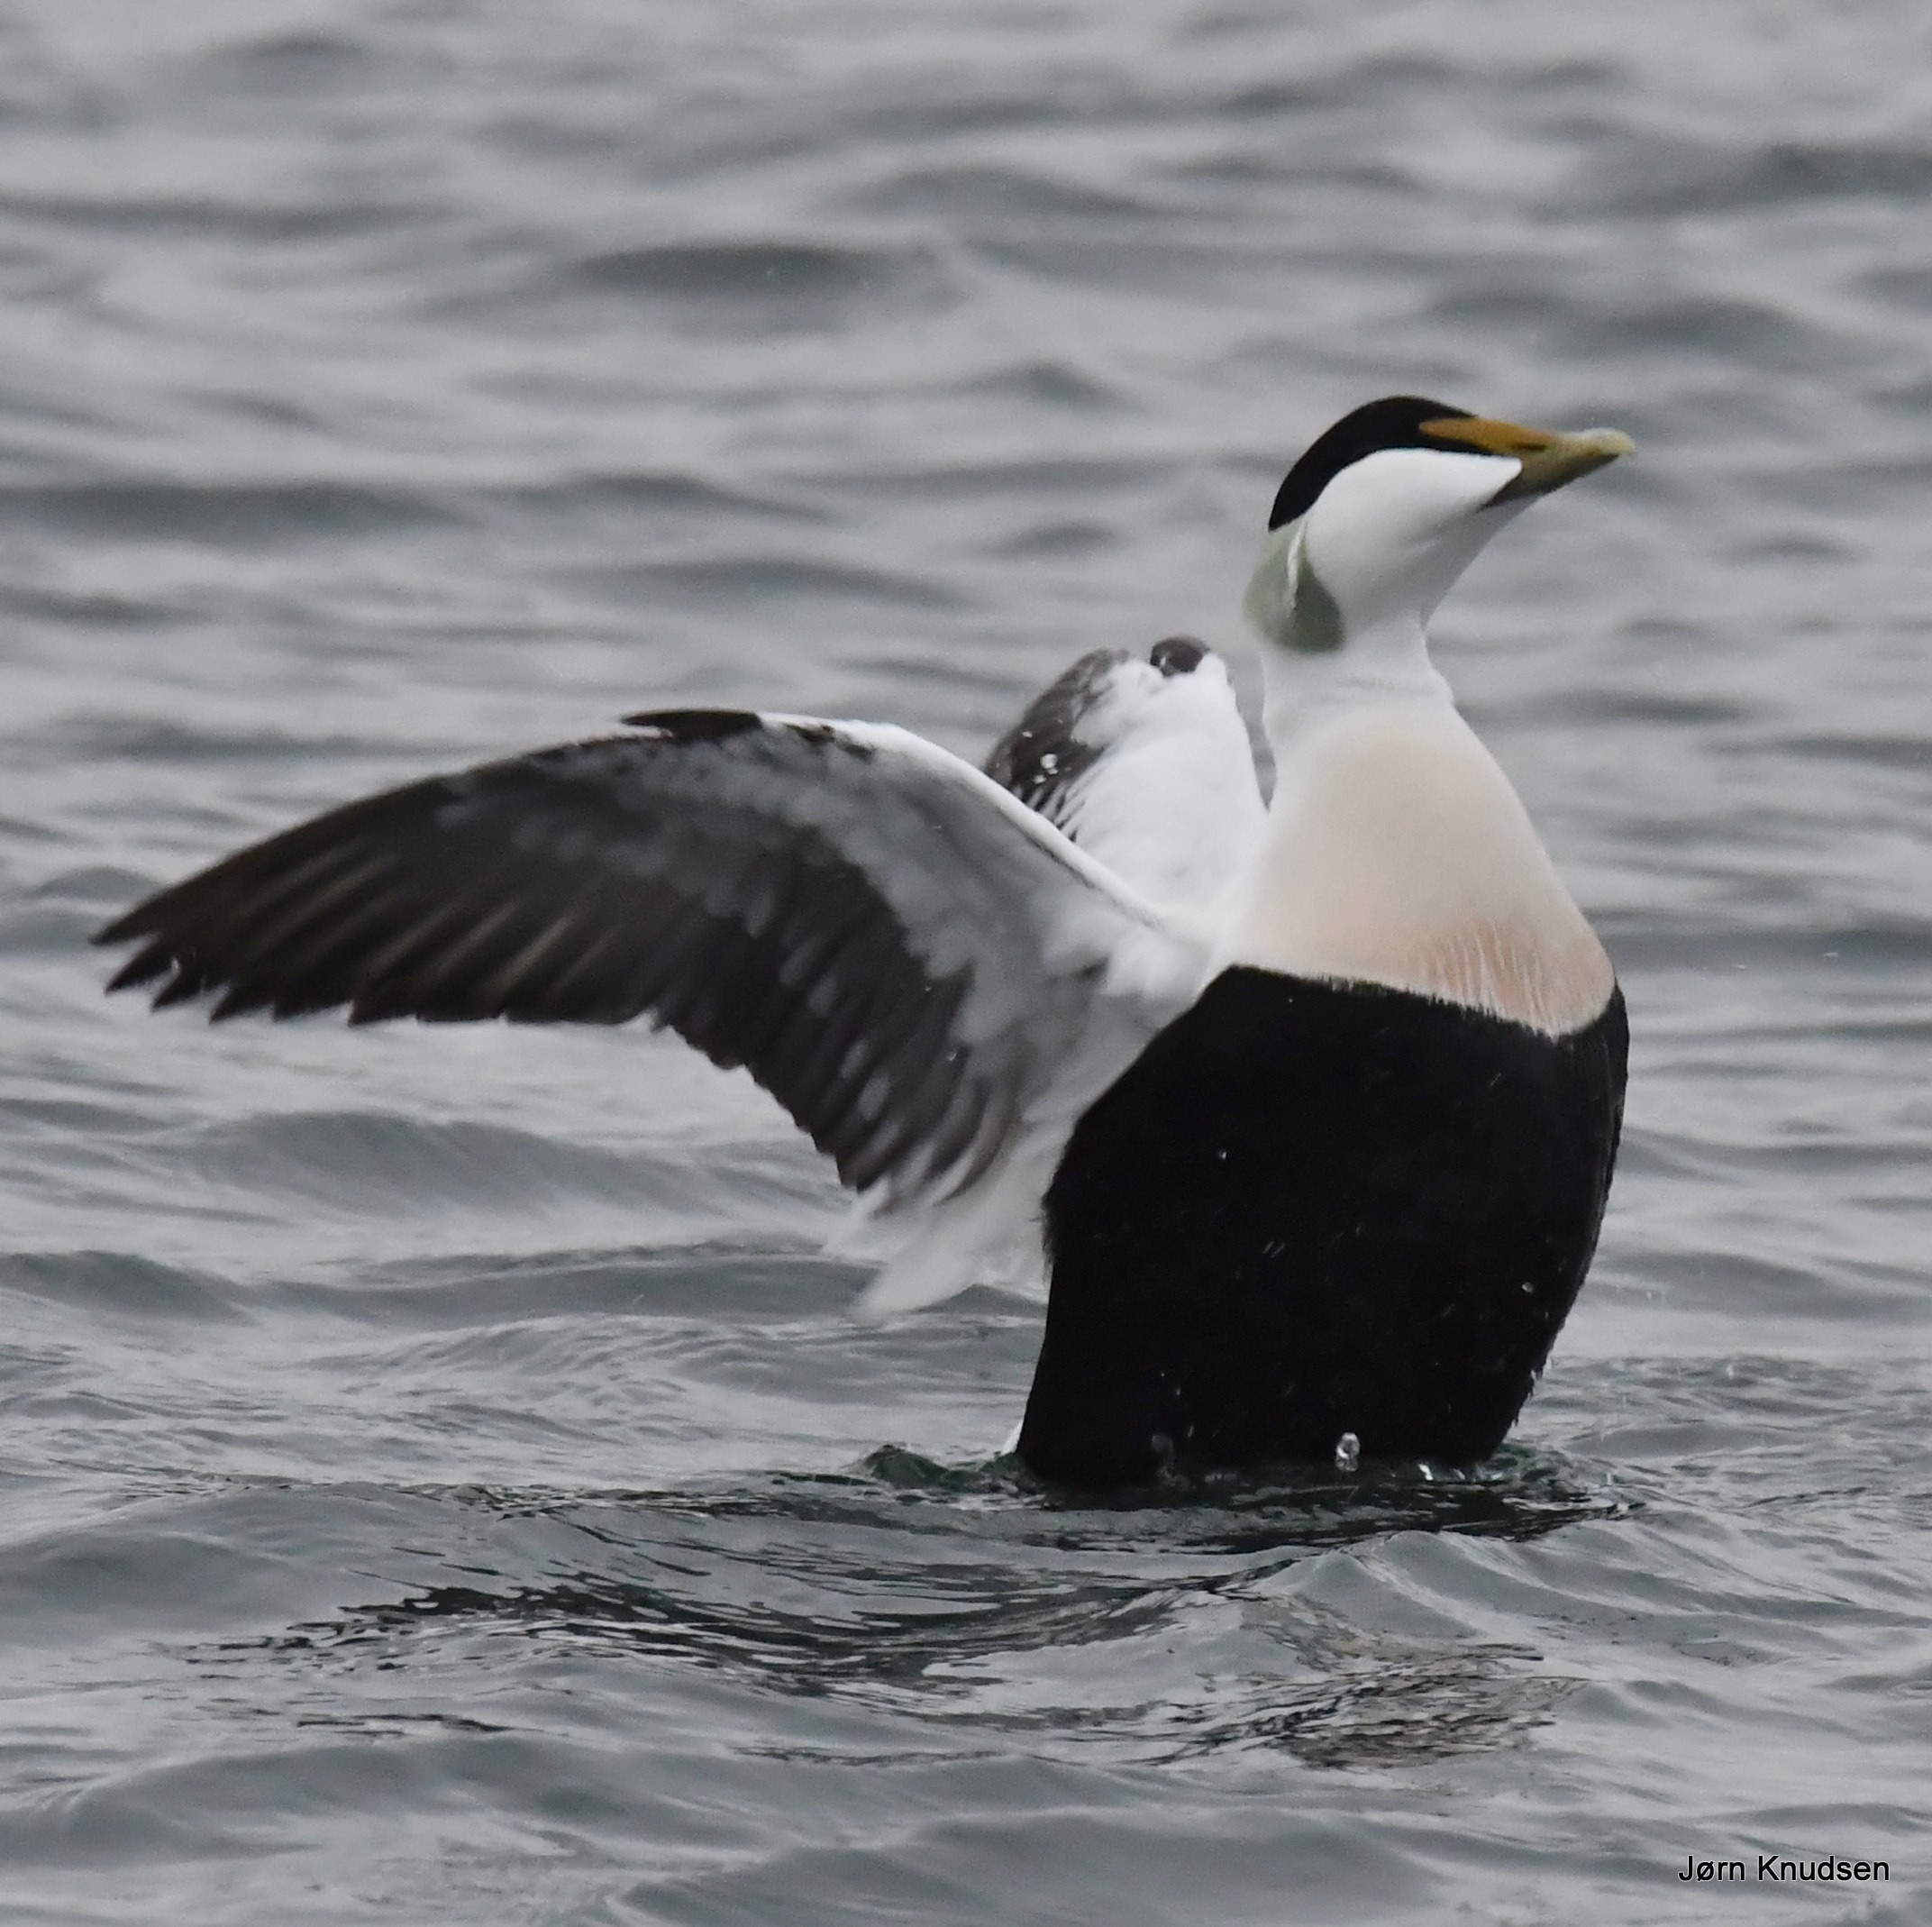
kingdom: Animalia
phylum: Chordata
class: Aves
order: Anseriformes
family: Anatidae
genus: Somateria
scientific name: Somateria mollissima
